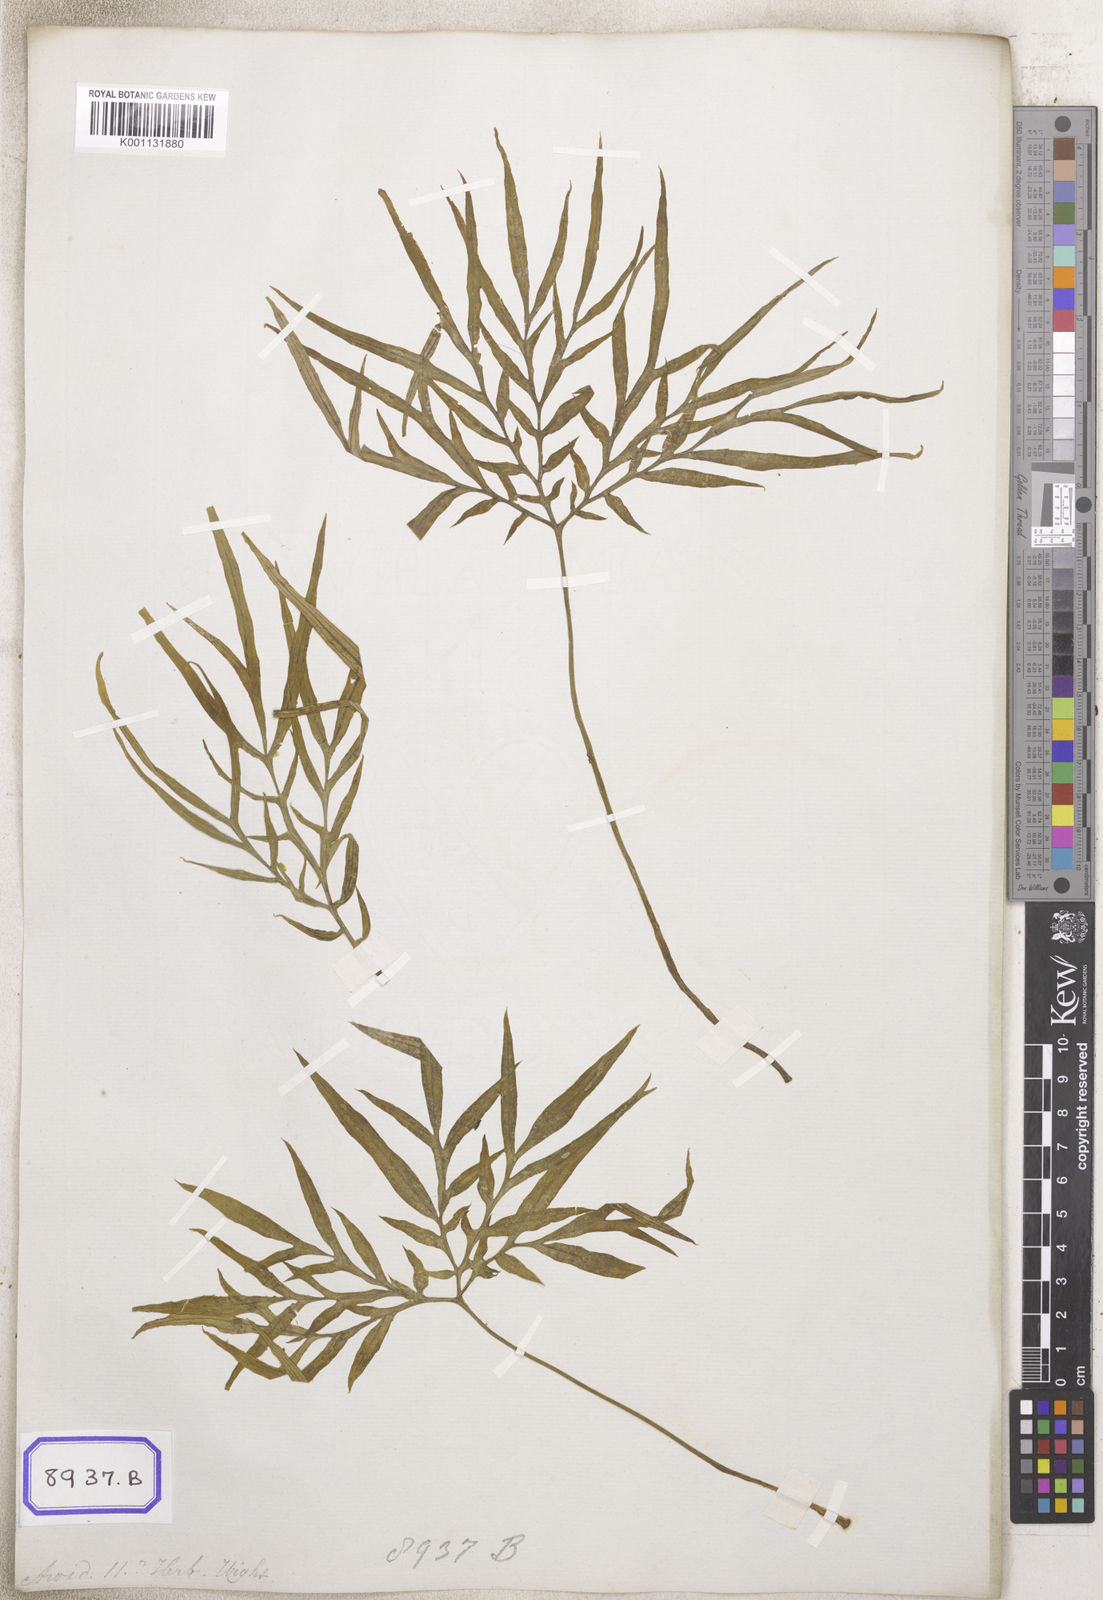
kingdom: Plantae
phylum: Tracheophyta
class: Liliopsida
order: Alismatales
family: Araceae
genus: Amorphophallus
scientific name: Amorphophallus
